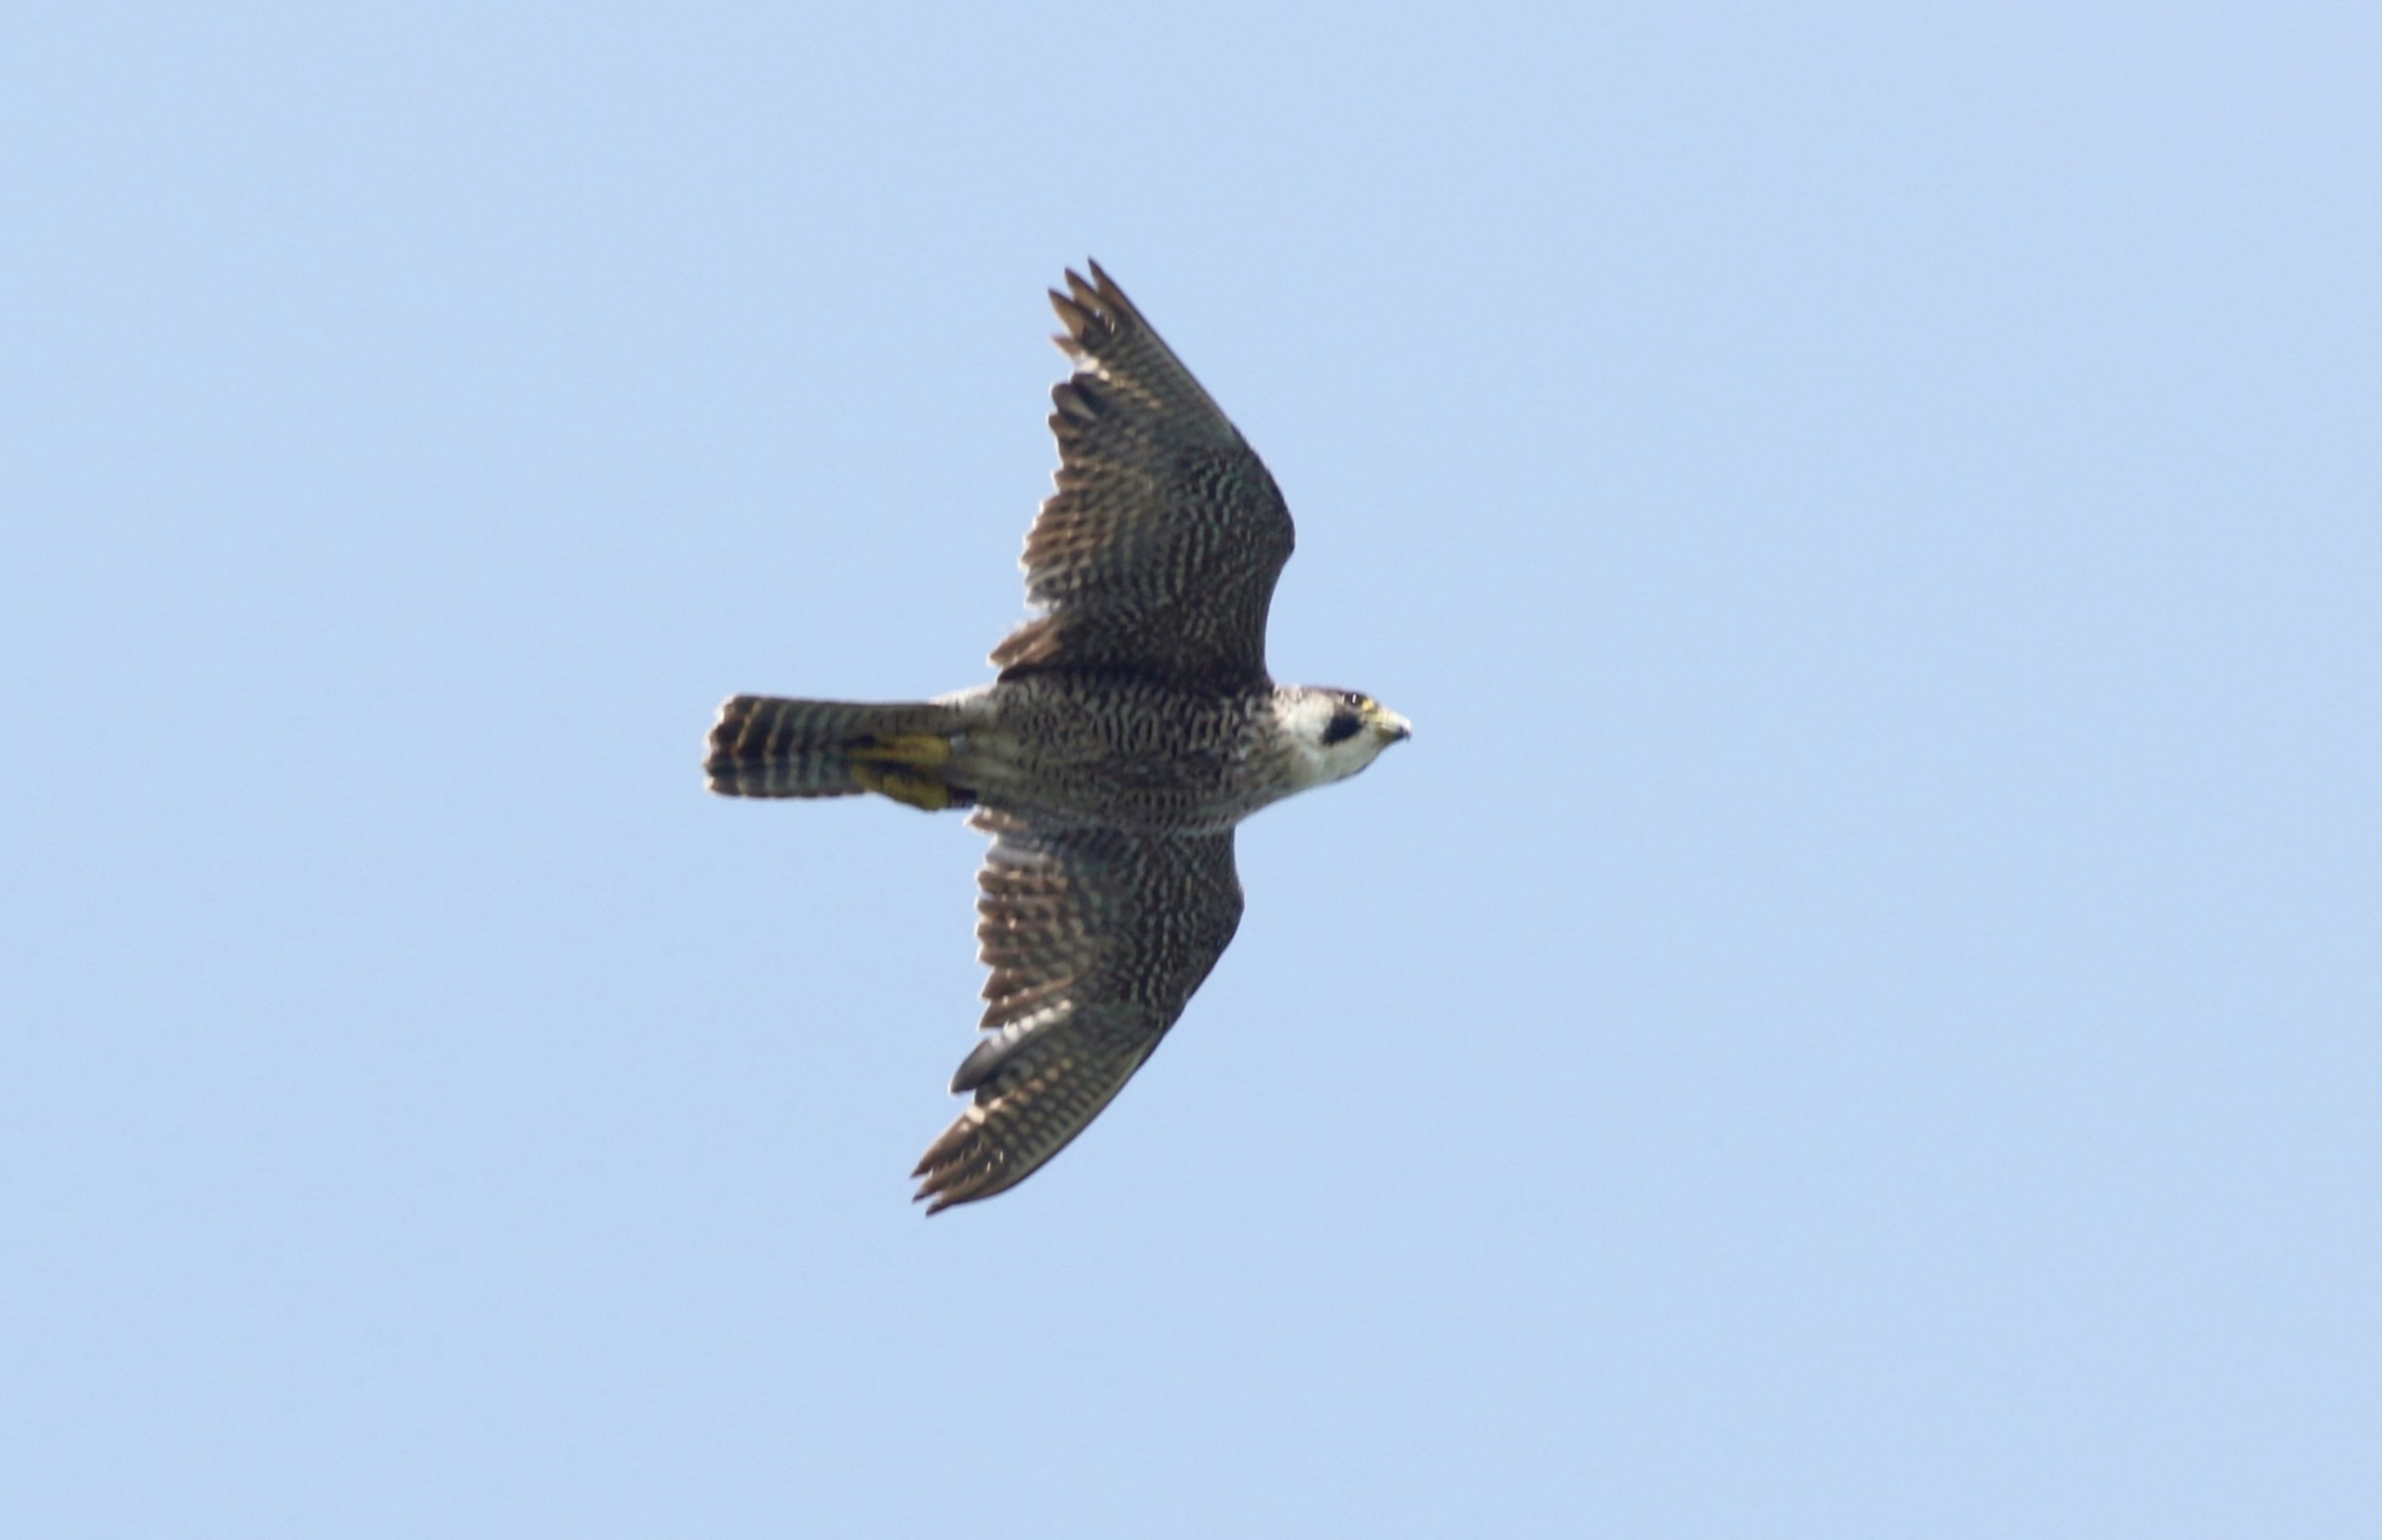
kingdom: Animalia
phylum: Chordata
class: Aves
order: Falconiformes
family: Falconidae
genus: Falco
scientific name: Falco peregrinus
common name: Vandrefalk
